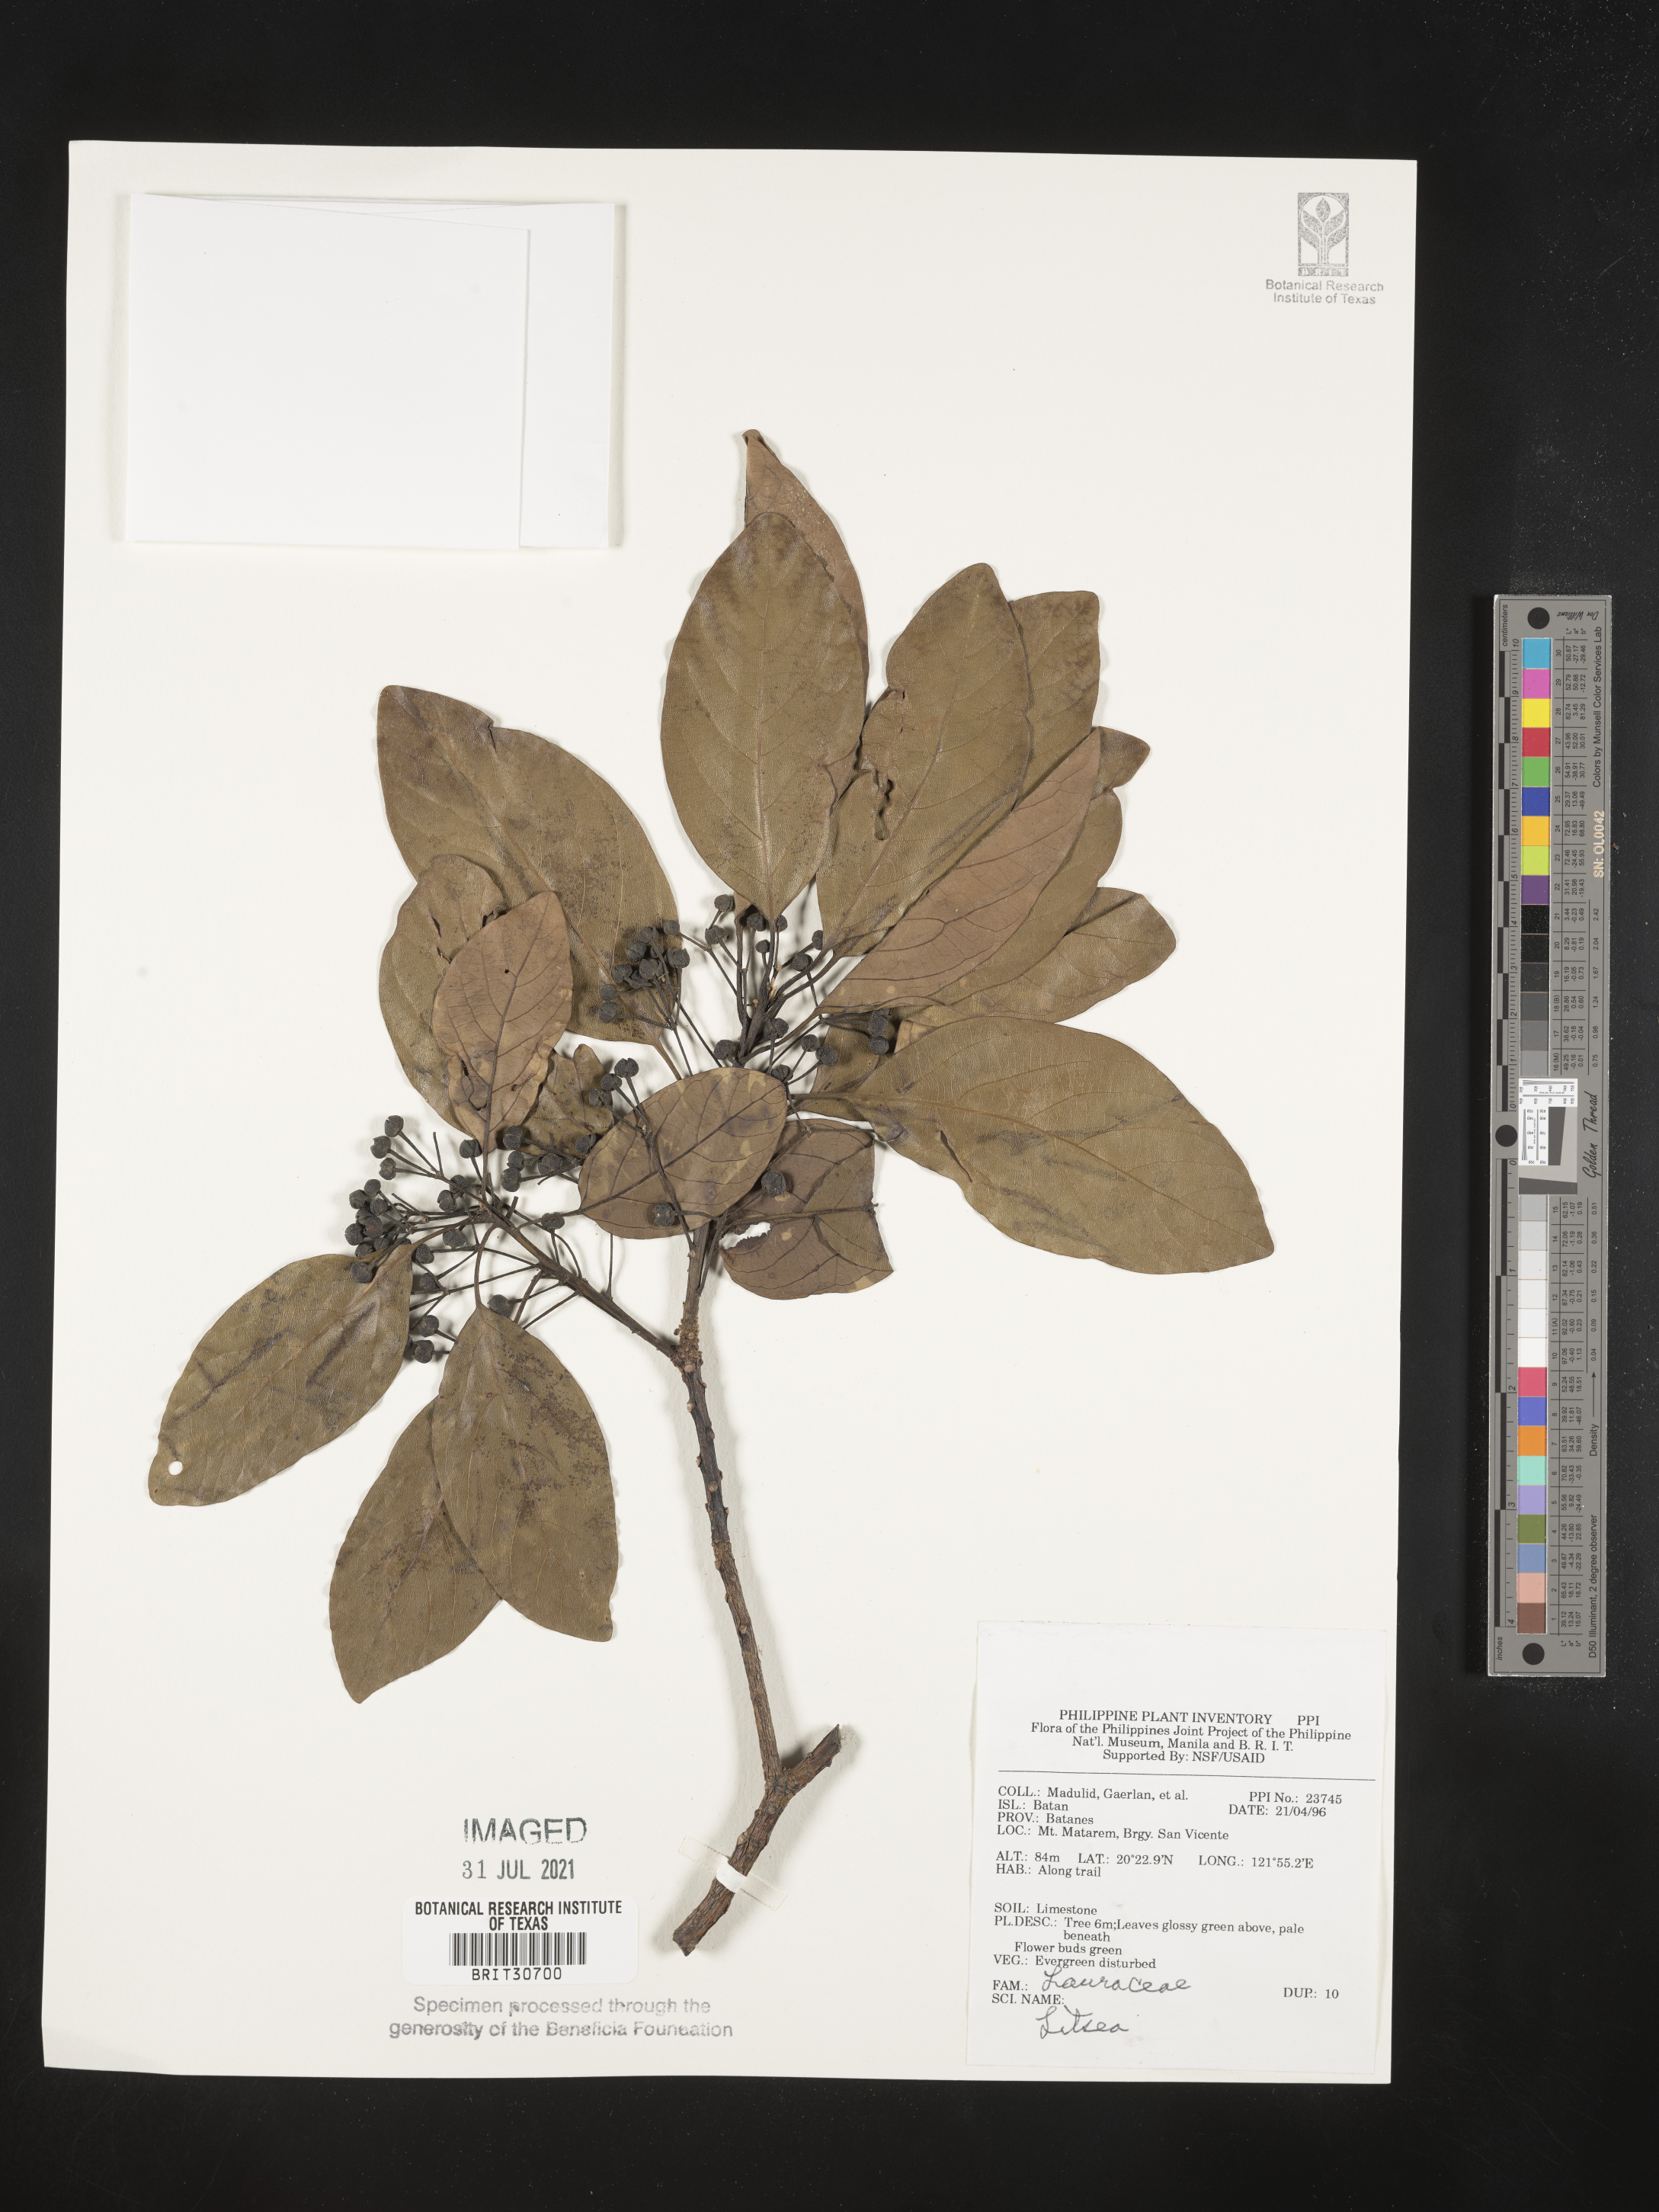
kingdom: Plantae
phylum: Tracheophyta
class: Magnoliopsida
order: Laurales
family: Lauraceae
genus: Litsea
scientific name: Litsea
